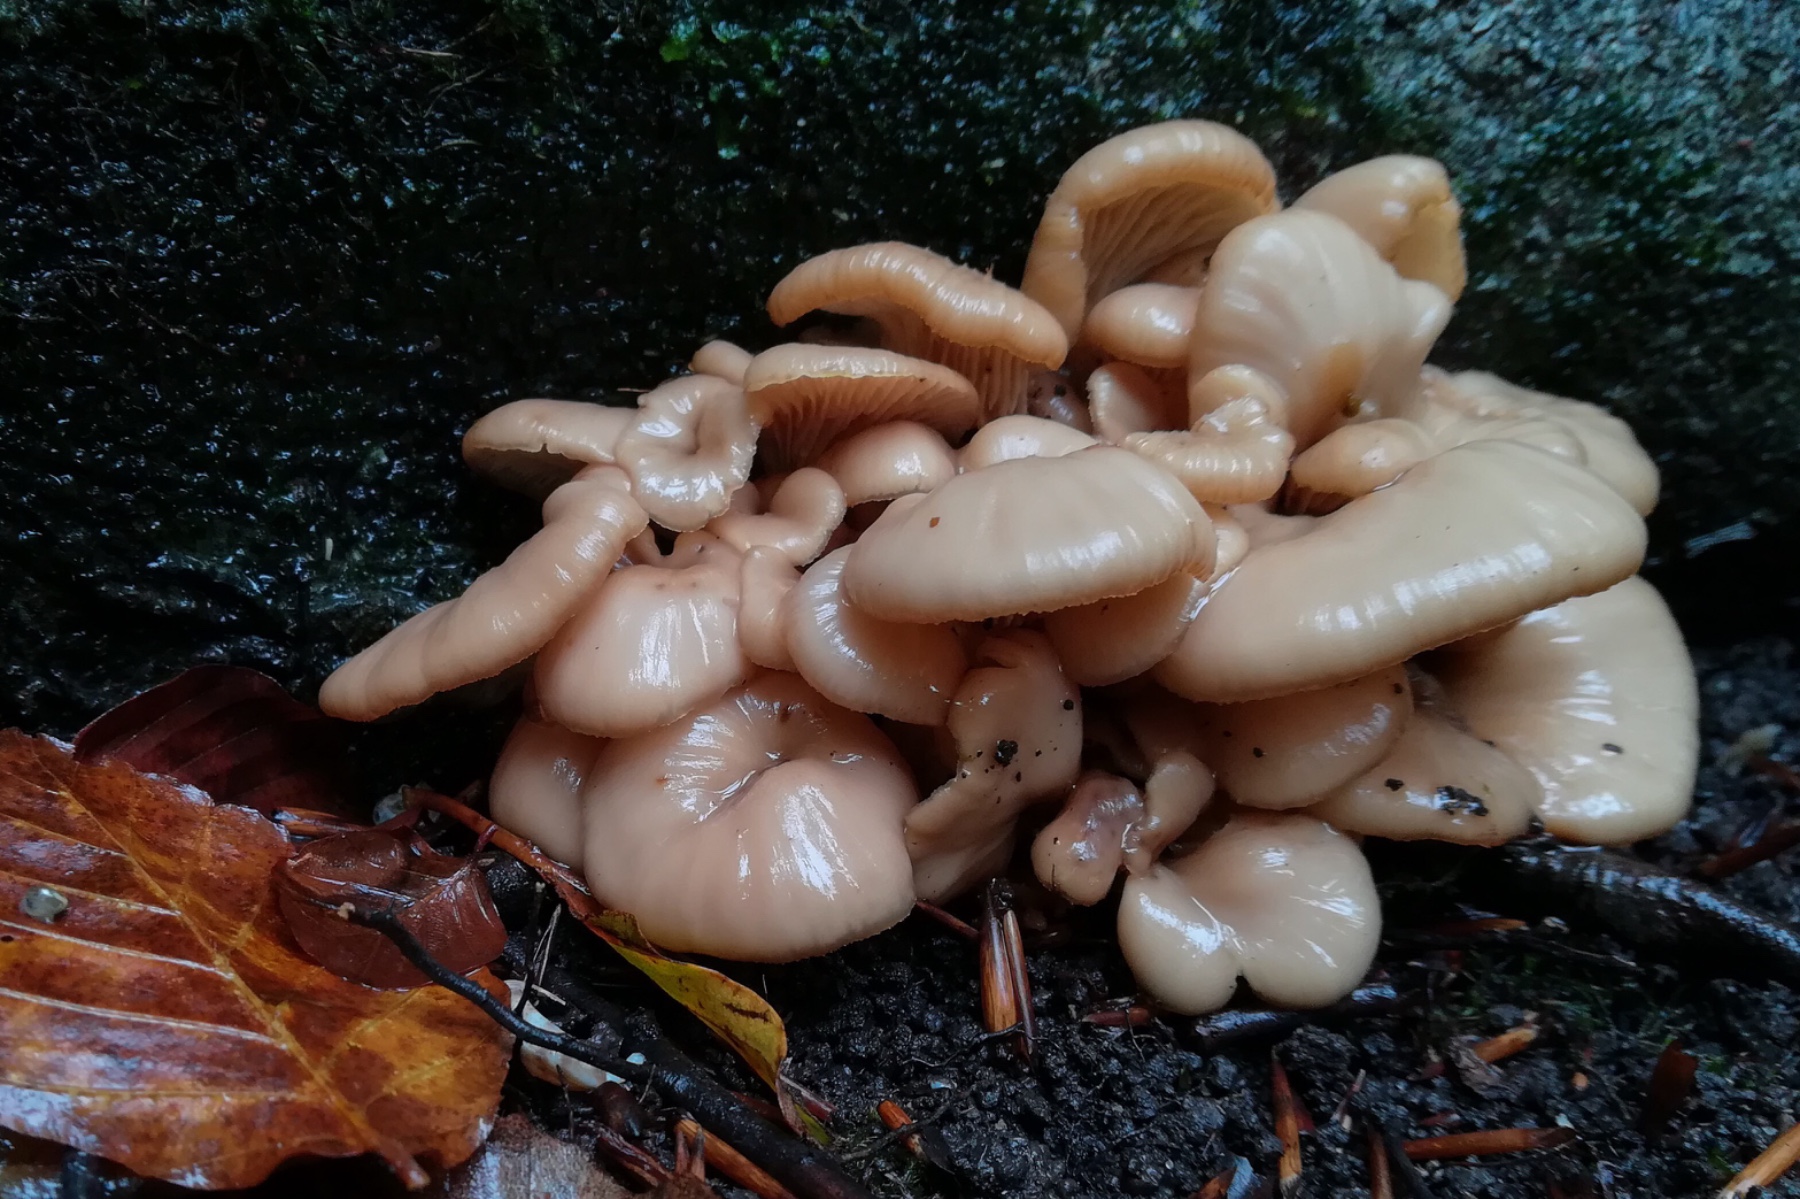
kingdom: Fungi
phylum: Basidiomycota
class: Agaricomycetes
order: Russulales
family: Auriscalpiaceae
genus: Lentinellus
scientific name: Lentinellus cochleatus
